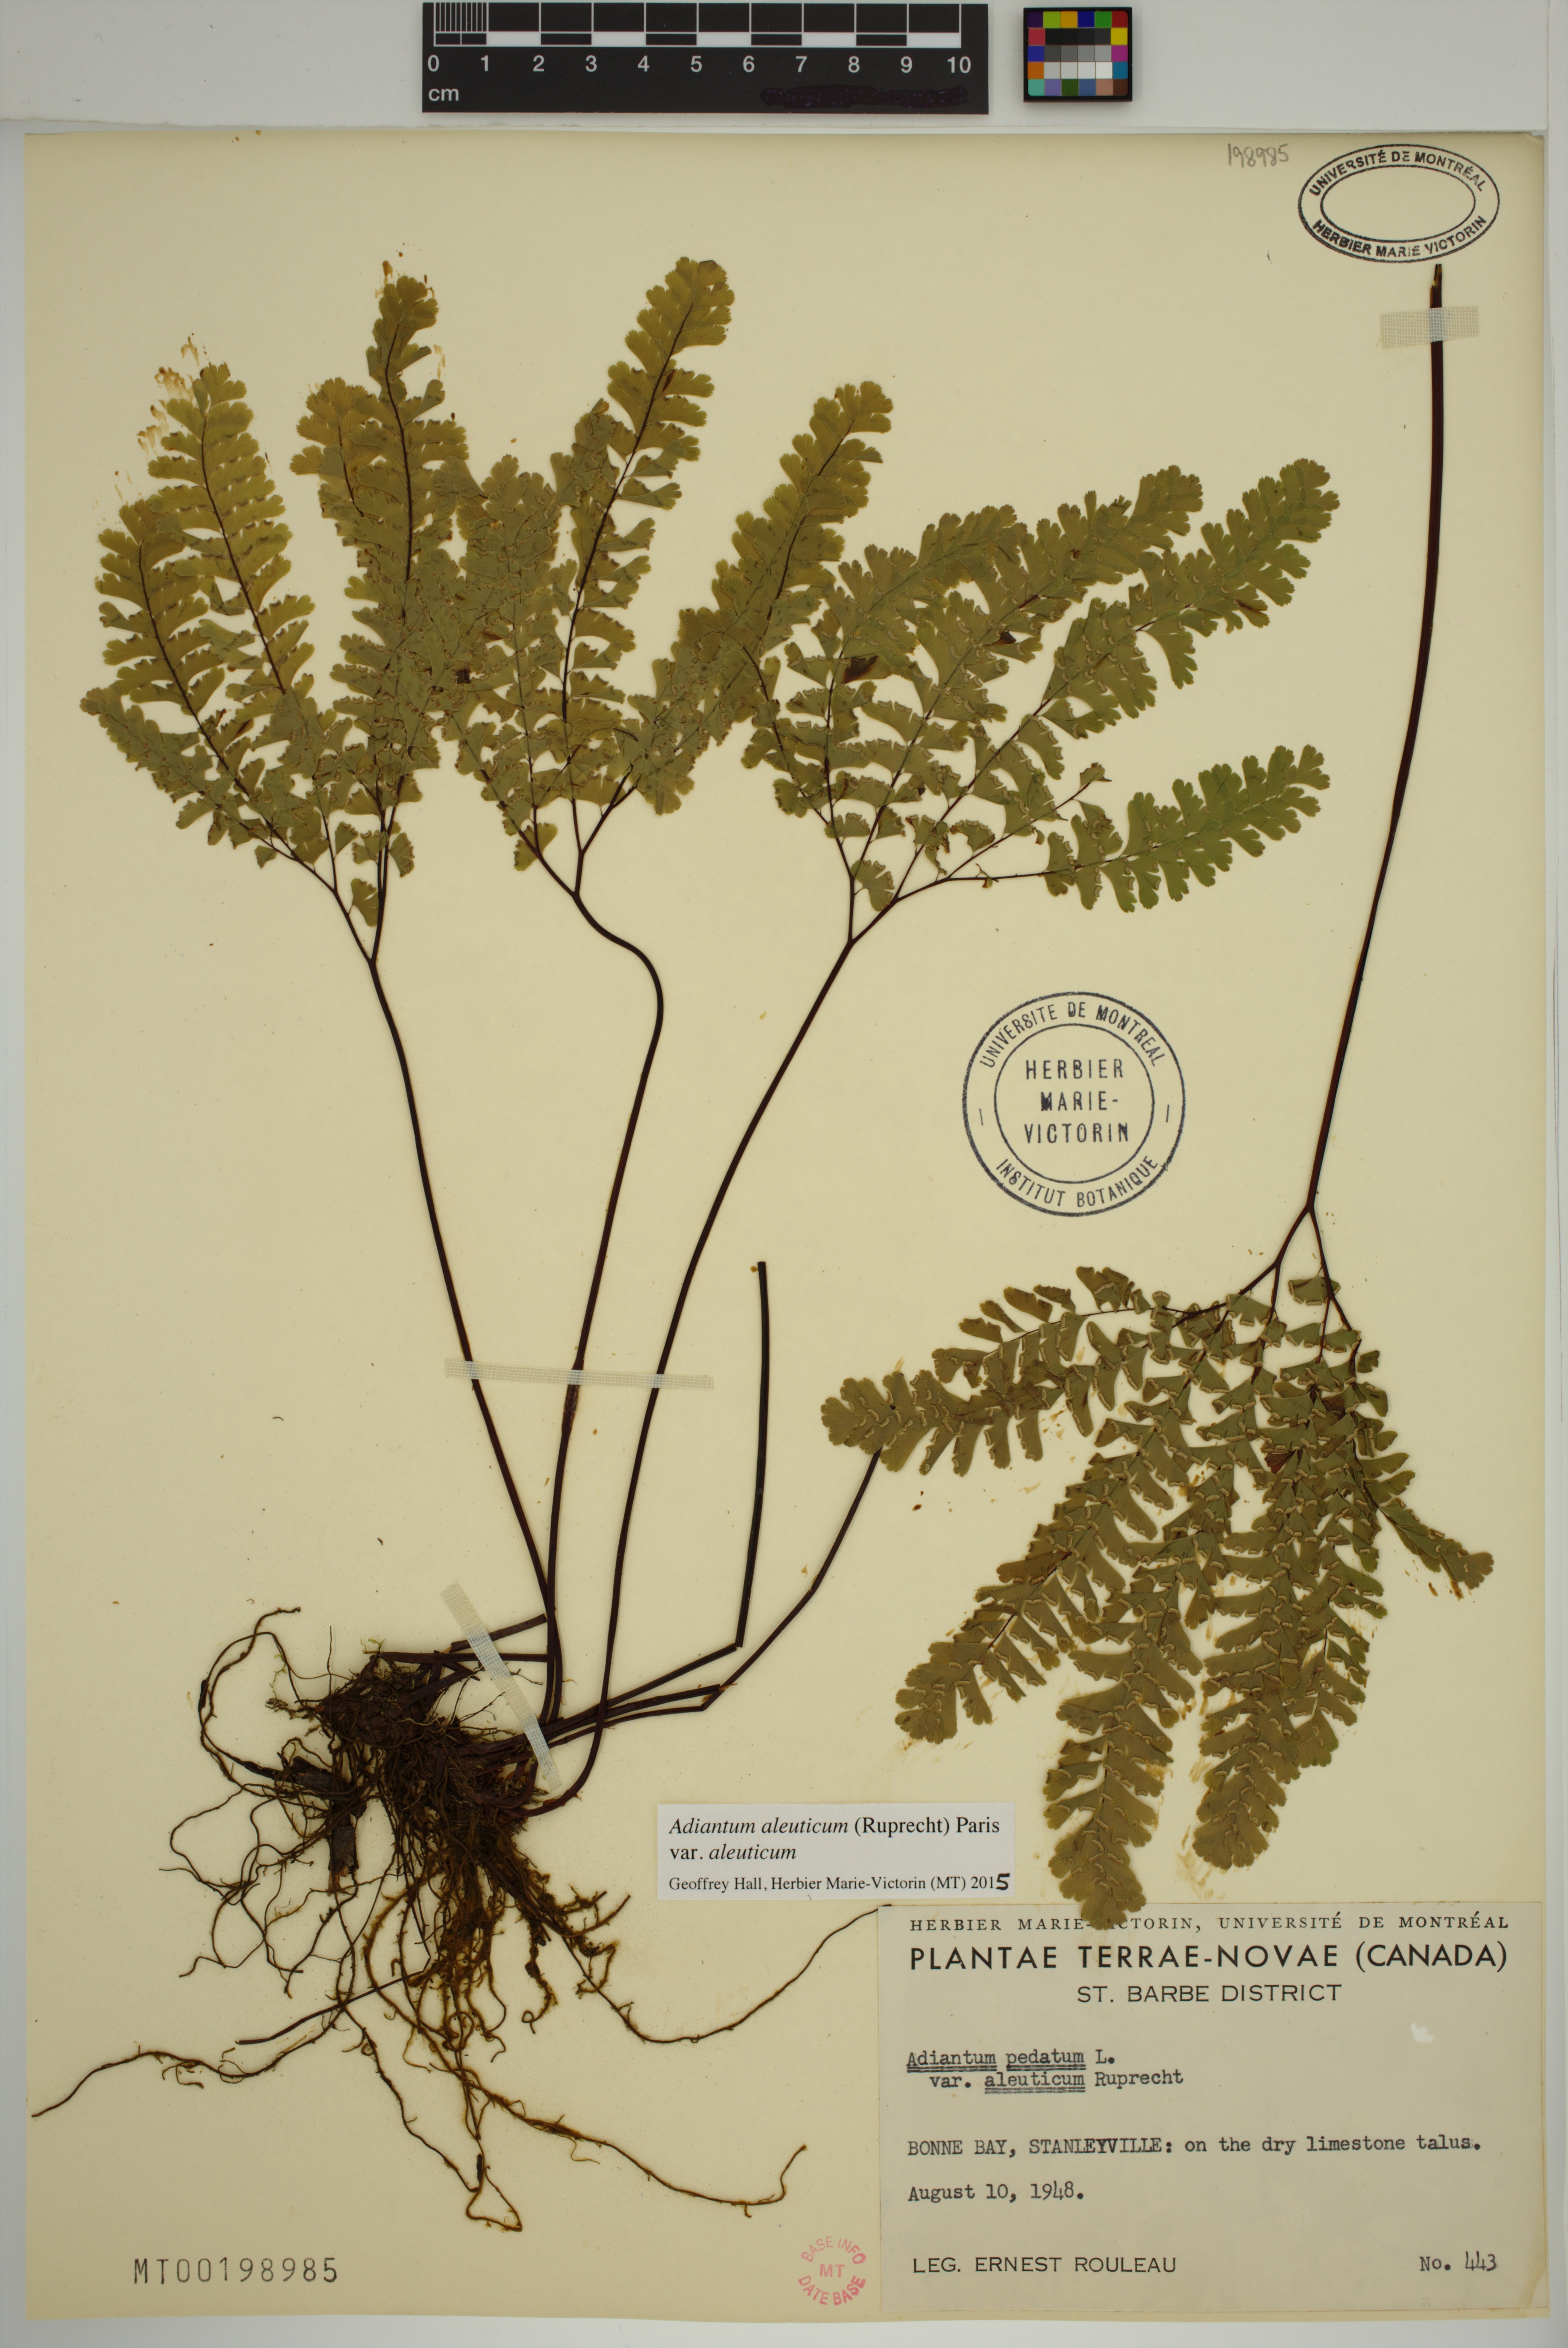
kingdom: Plantae
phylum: Tracheophyta
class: Polypodiopsida
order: Polypodiales
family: Pteridaceae
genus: Adiantum
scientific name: Adiantum aleuticum
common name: Aleutian maidenhair fern
